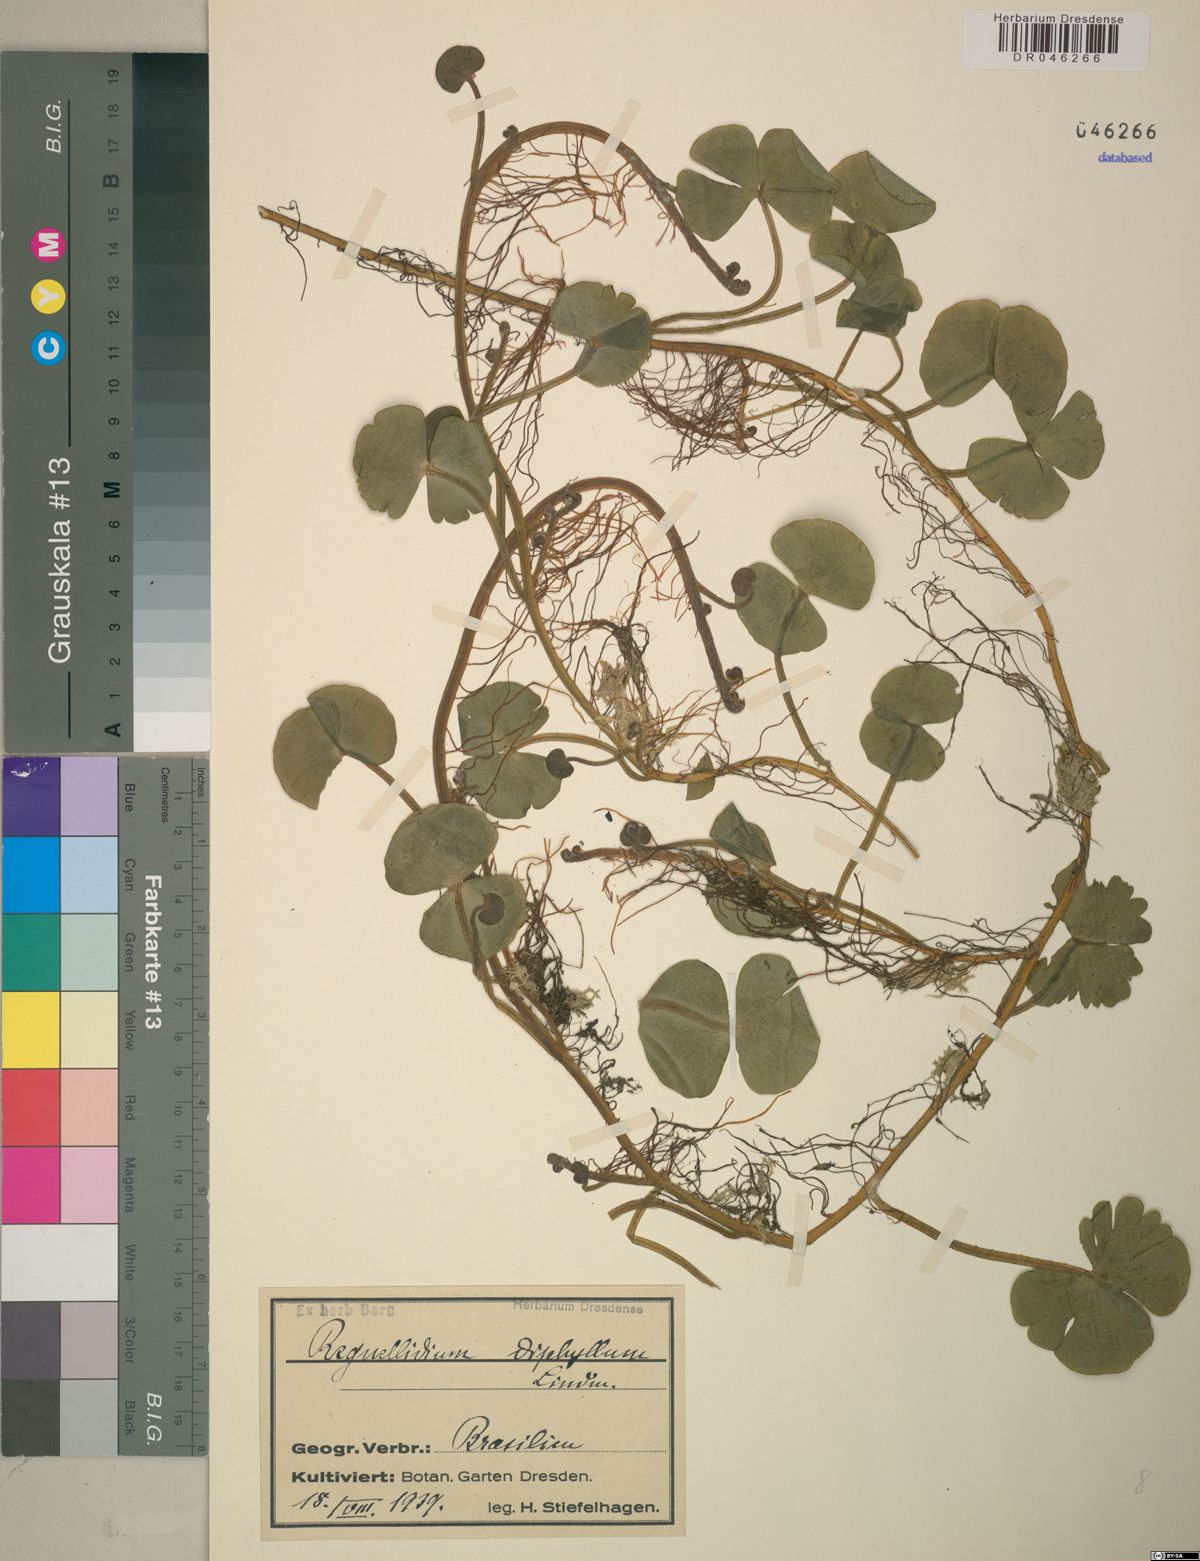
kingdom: Plantae
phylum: Tracheophyta
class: Polypodiopsida
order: Salviniales
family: Marsileaceae
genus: Regnellidium
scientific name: Regnellidium diphyllum
